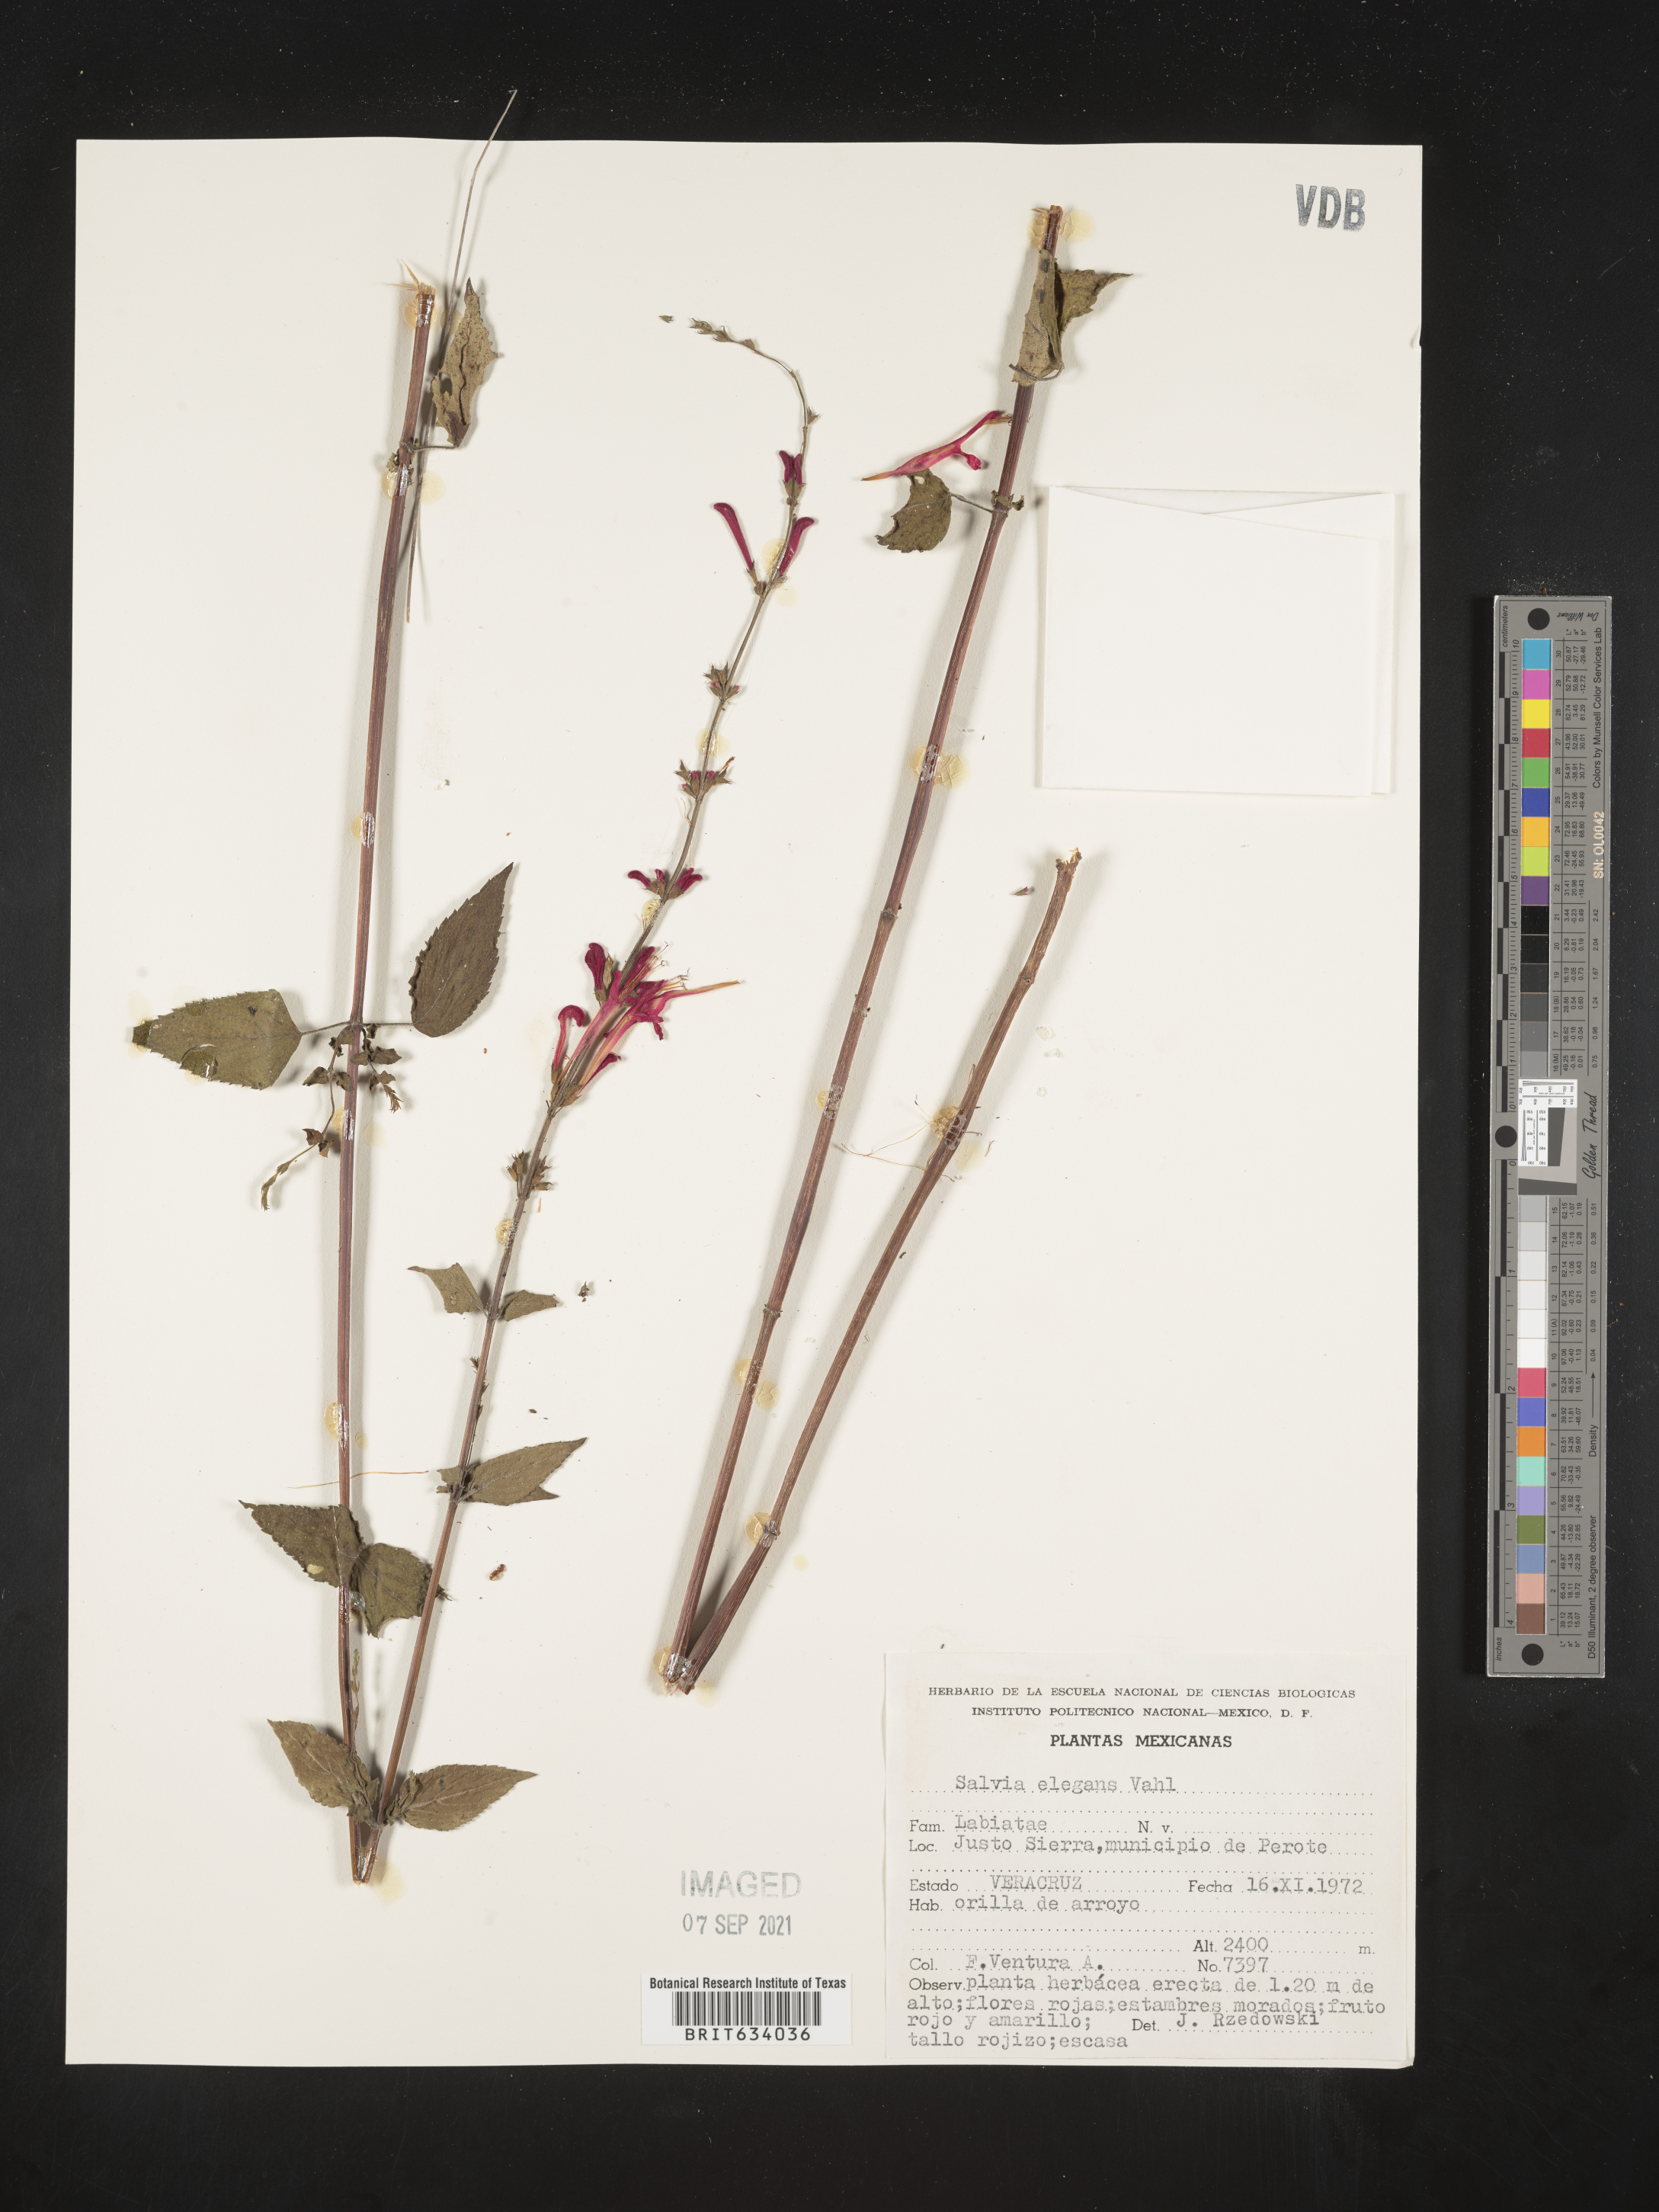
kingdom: Plantae
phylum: Tracheophyta
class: Magnoliopsida
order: Lamiales
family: Lamiaceae
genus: Salvia
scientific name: Salvia
